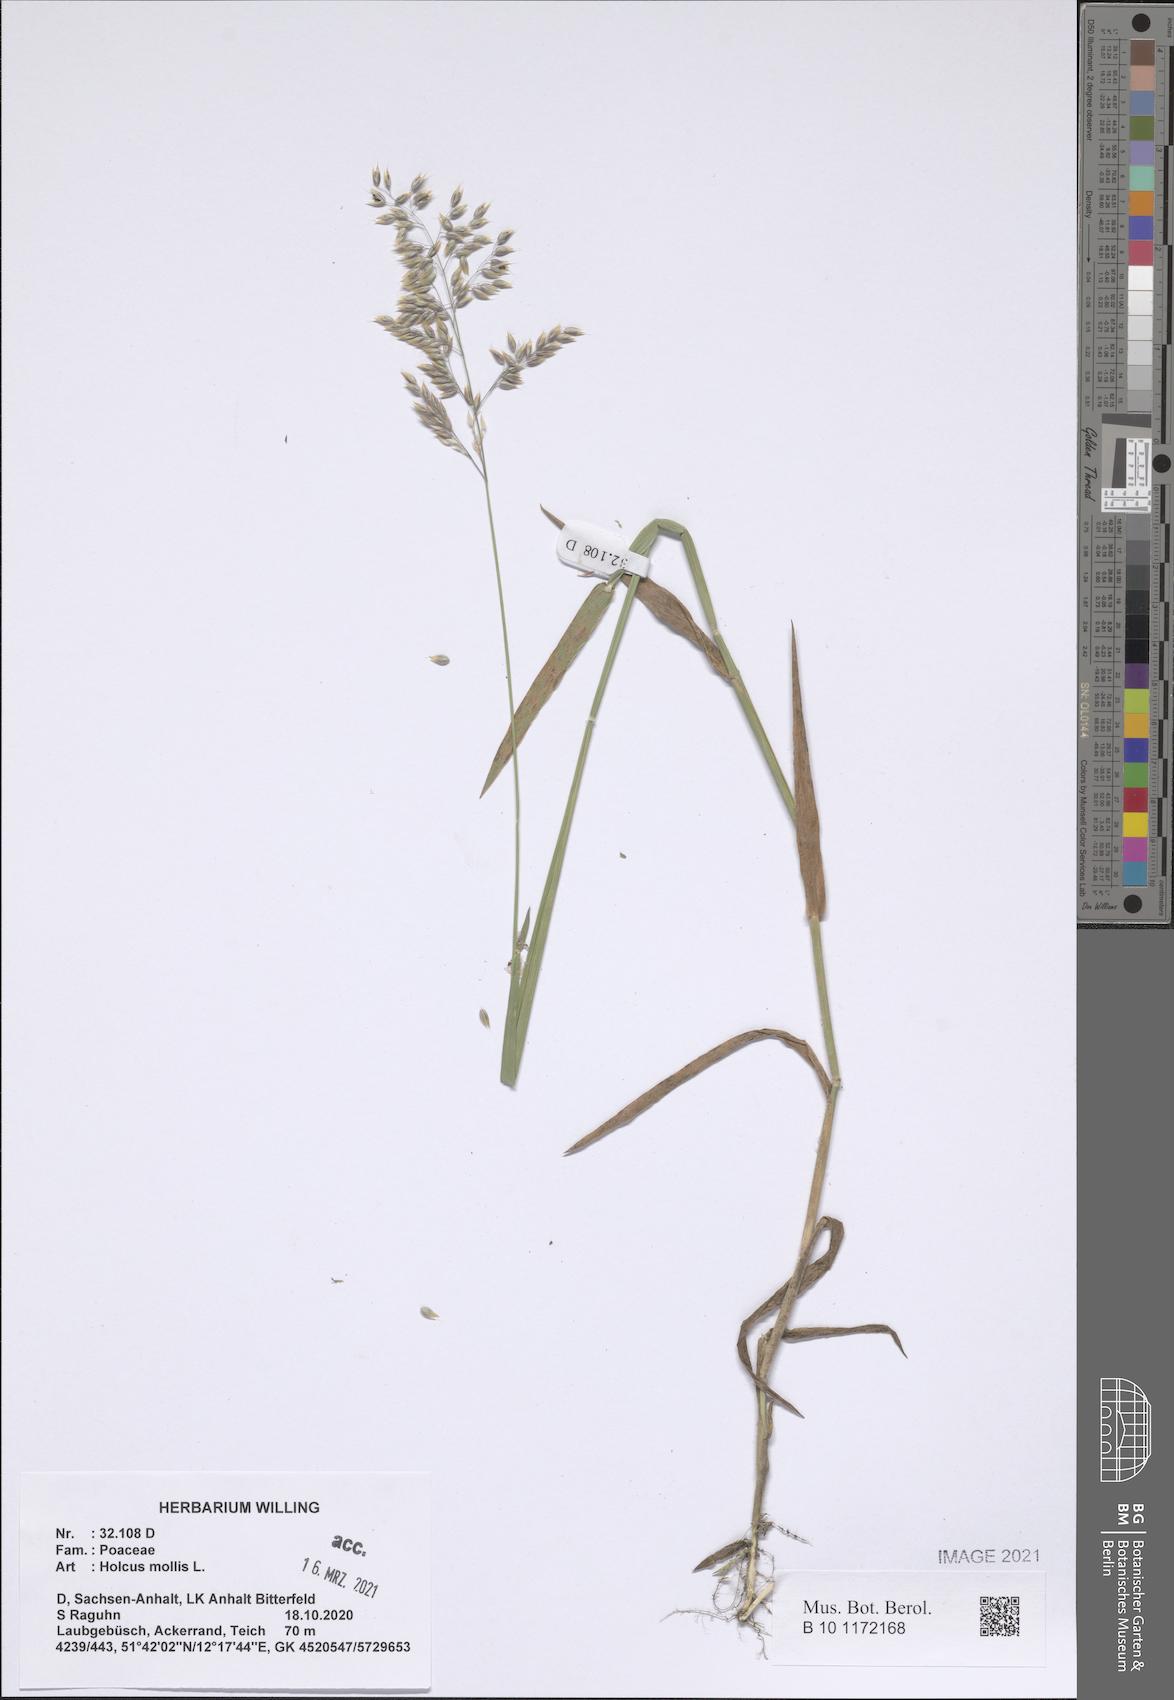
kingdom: Plantae
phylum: Tracheophyta
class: Liliopsida
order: Poales
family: Poaceae
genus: Holcus
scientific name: Holcus mollis
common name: Creeping velvetgrass
